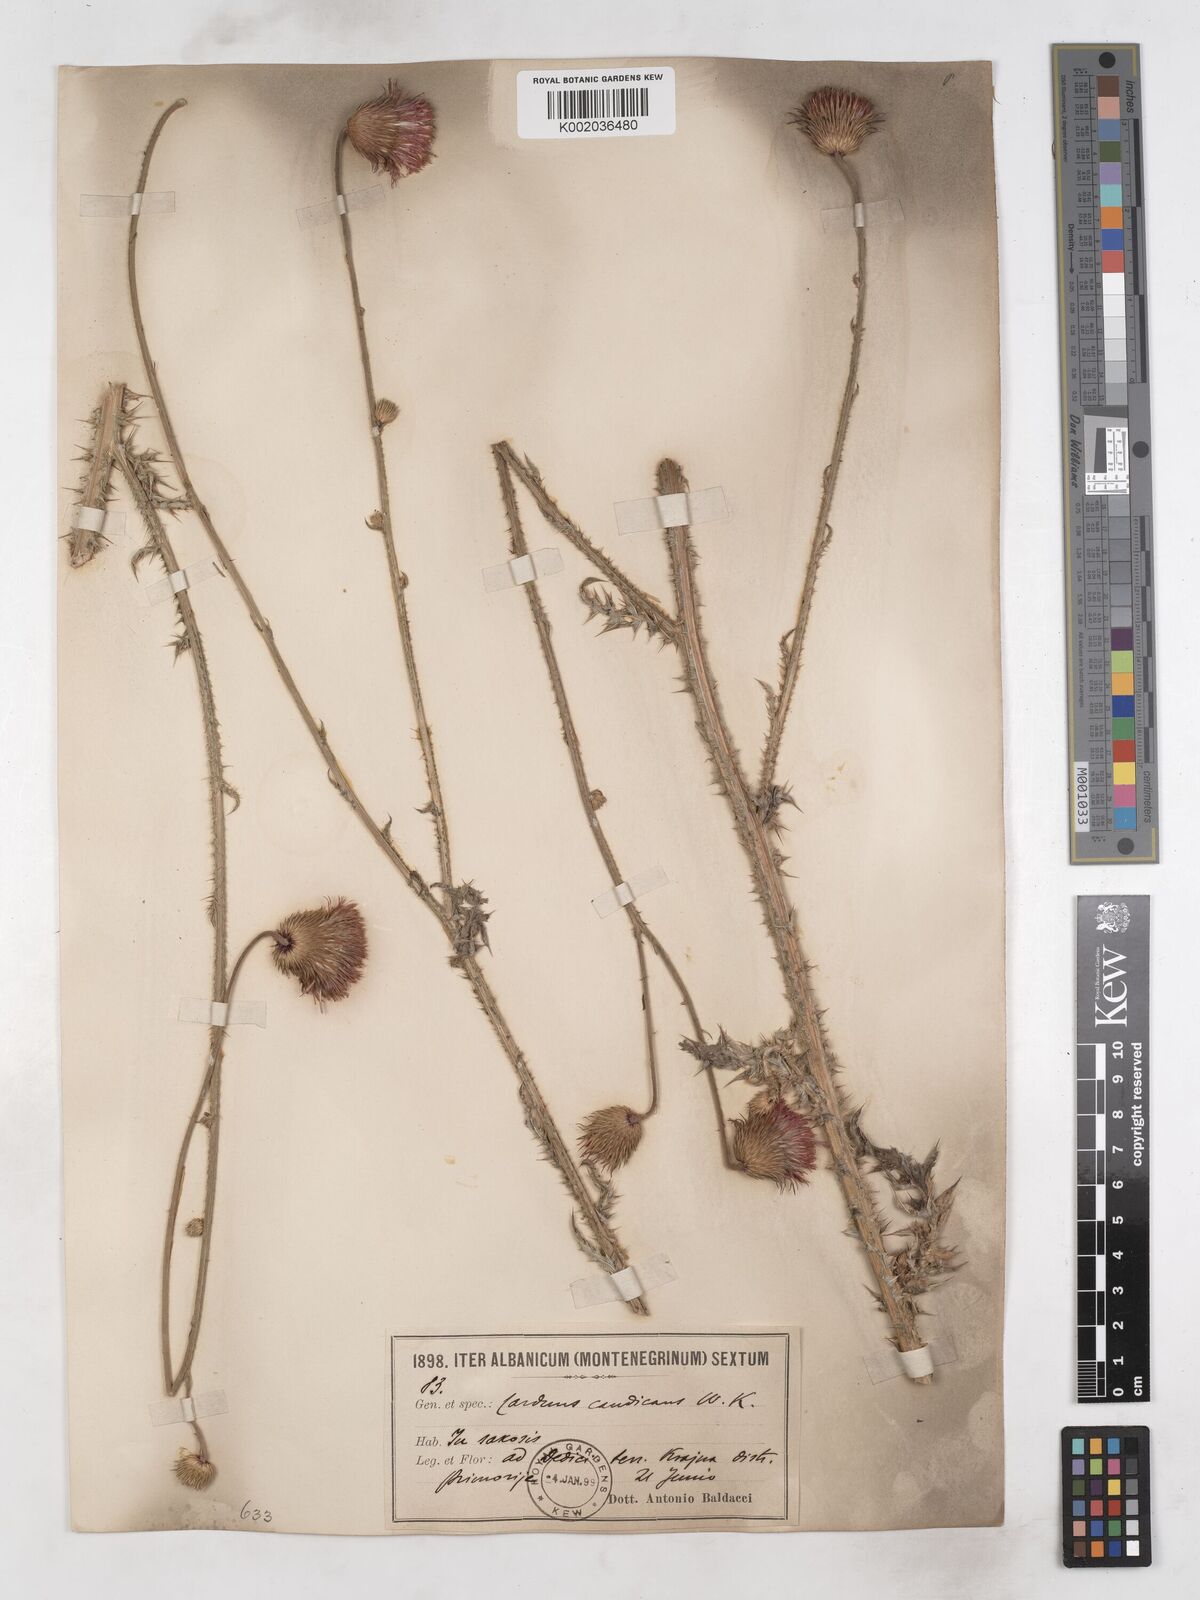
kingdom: Plantae
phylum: Tracheophyta
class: Magnoliopsida
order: Asterales
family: Asteraceae
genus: Carduus
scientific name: Carduus candicans
